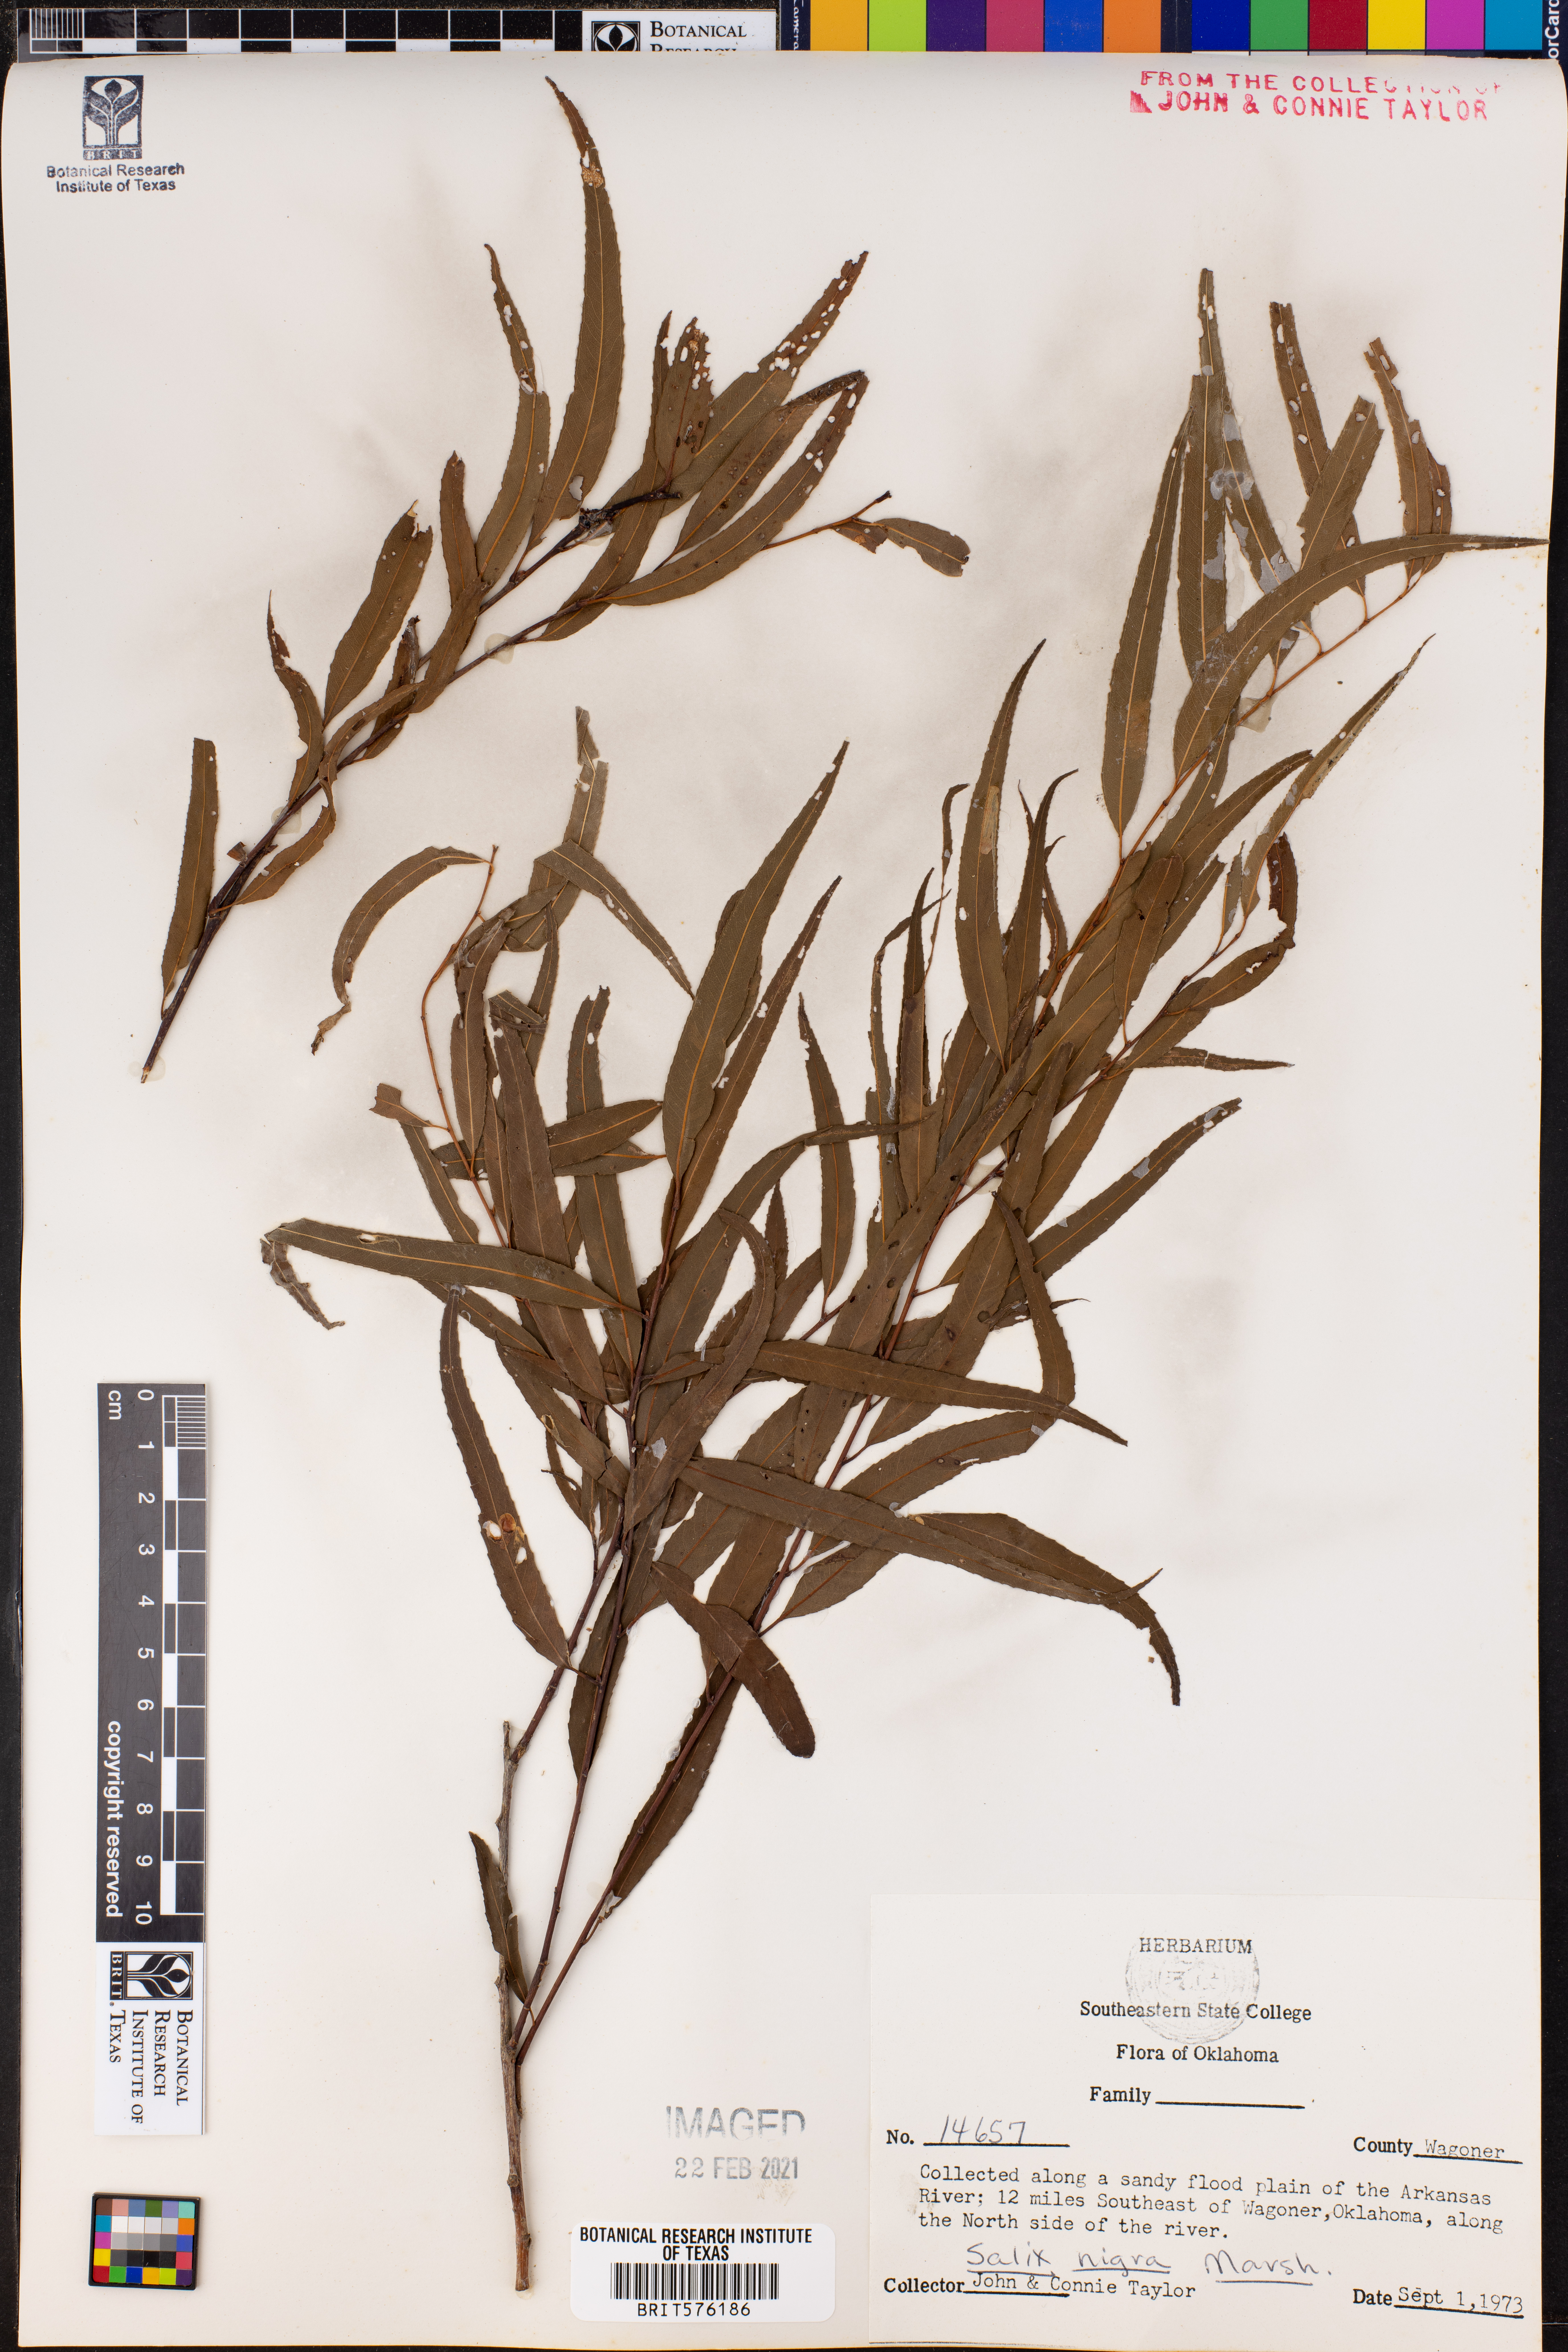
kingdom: Plantae
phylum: Tracheophyta
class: Magnoliopsida
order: Malpighiales
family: Salicaceae
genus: Salix
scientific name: Salix nigra
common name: Black willow
